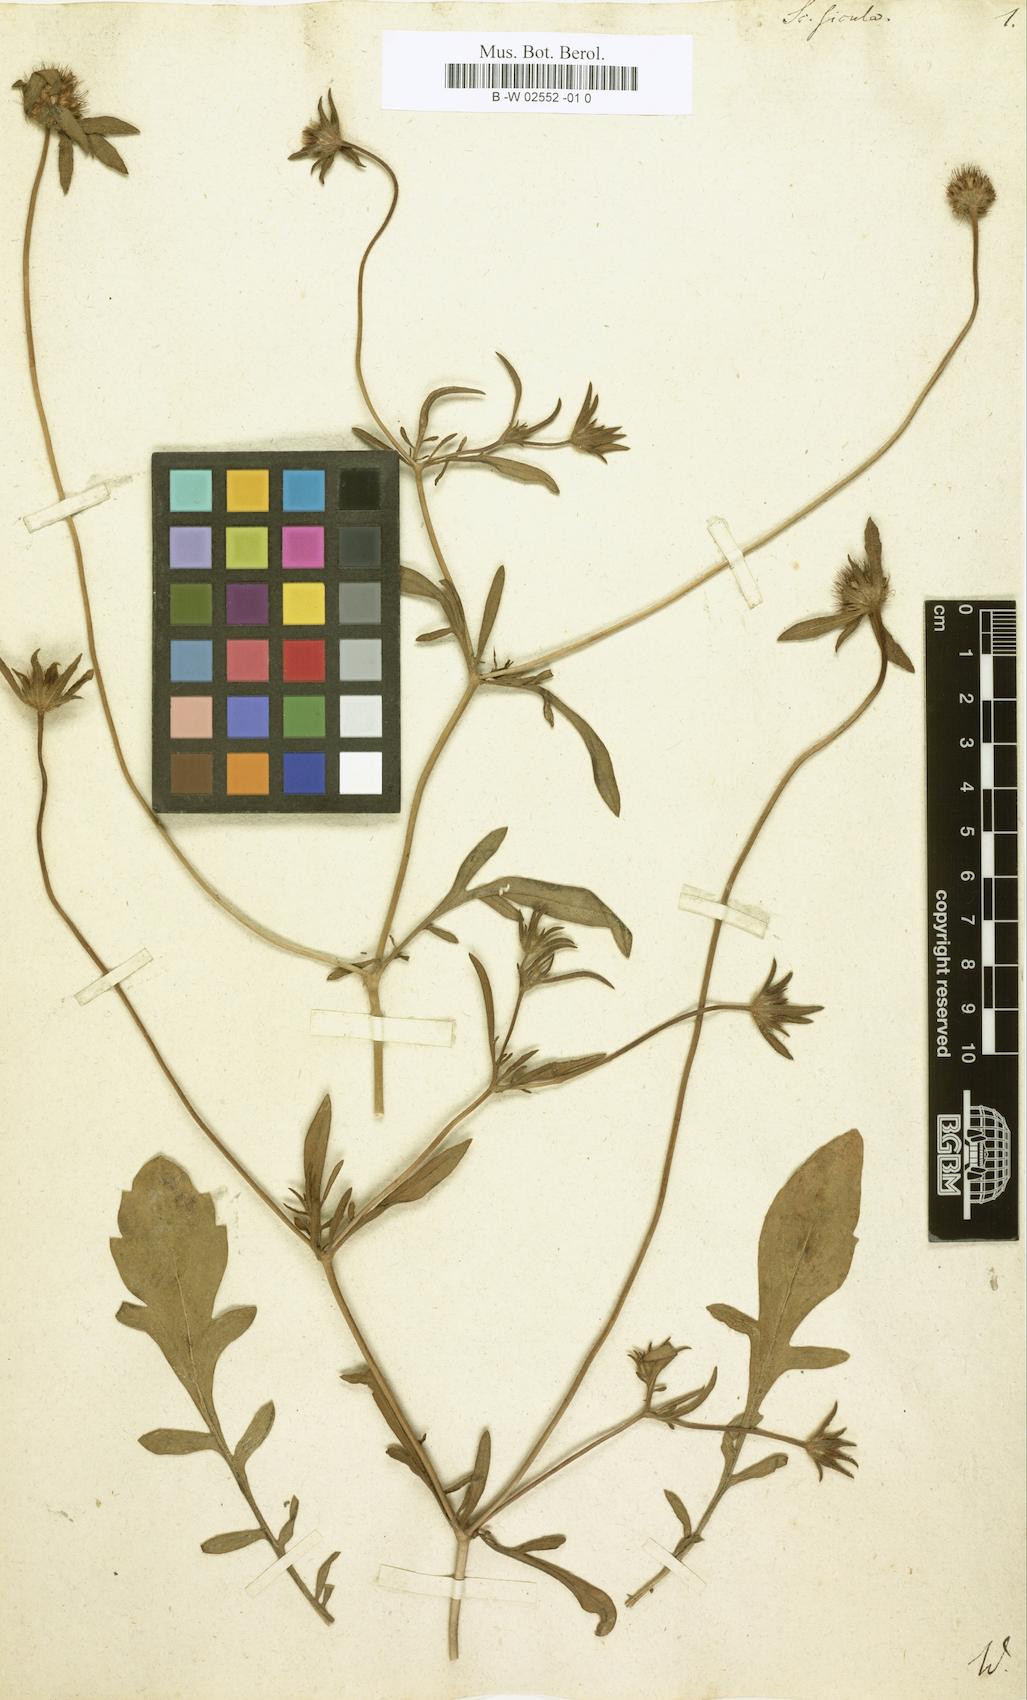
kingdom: Plantae
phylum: Tracheophyta
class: Magnoliopsida
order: Dipsacales
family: Caprifoliaceae
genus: Lomelosia
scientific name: Lomelosia divaricata
